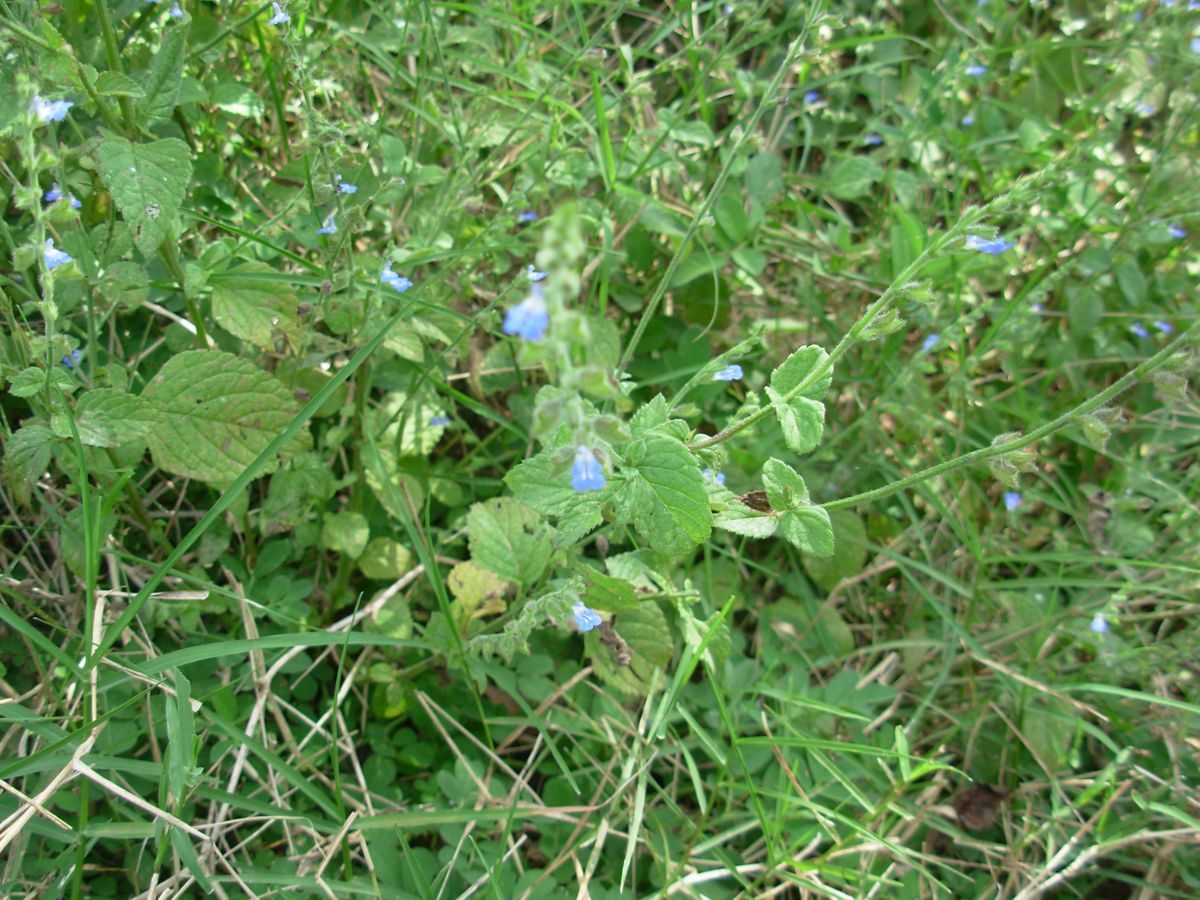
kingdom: Plantae
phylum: Tracheophyta
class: Magnoliopsida
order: Lamiales
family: Lamiaceae
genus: Salvia
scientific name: Salvia misella
